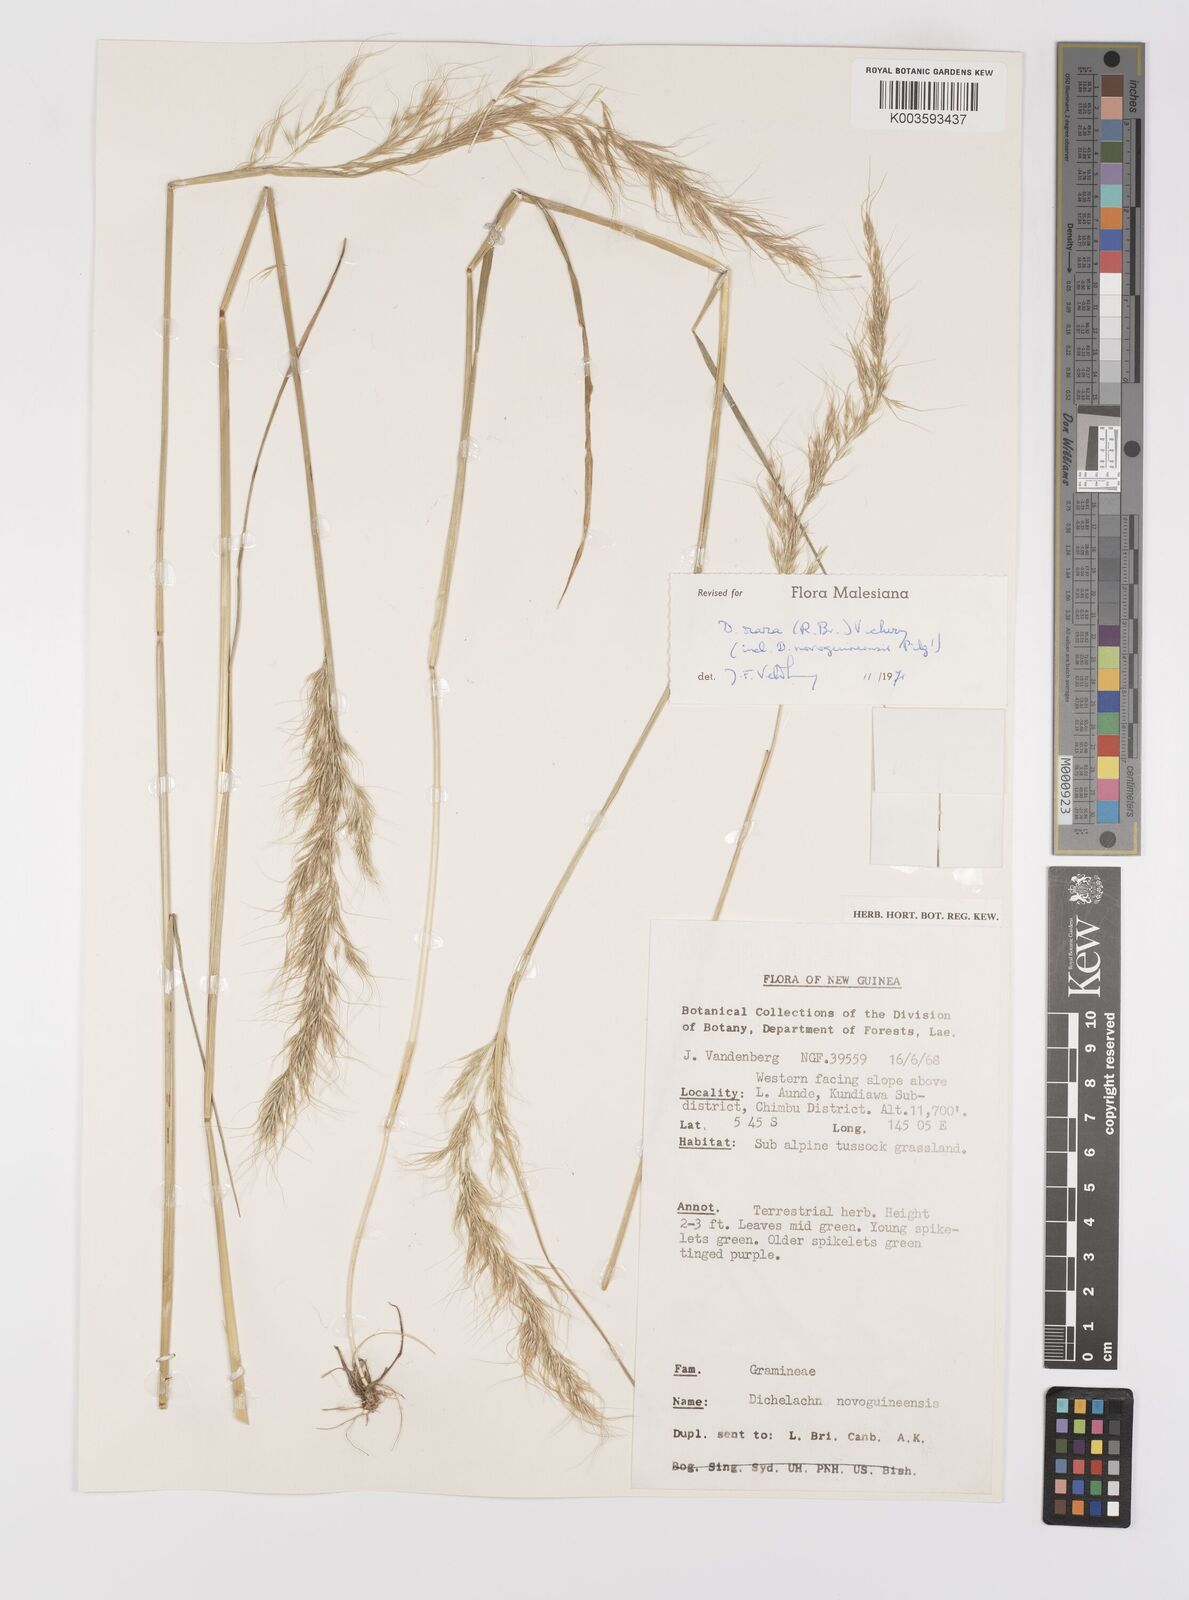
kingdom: Plantae
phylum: Tracheophyta
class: Liliopsida
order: Poales
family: Poaceae
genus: Dichelachne
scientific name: Dichelachne rara
